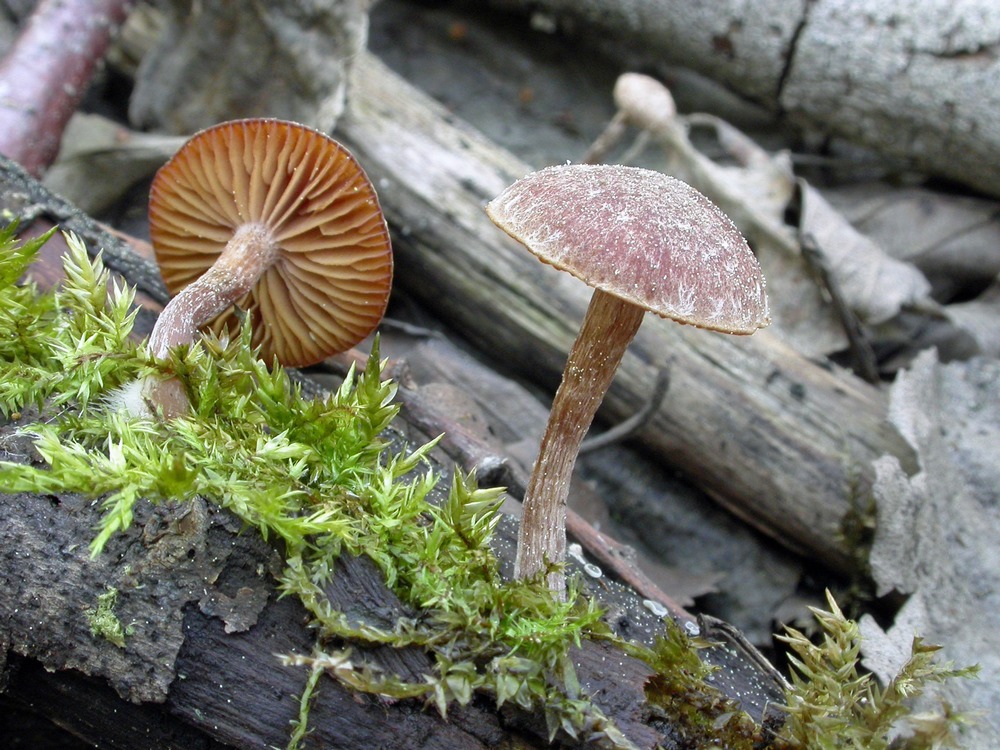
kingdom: Fungi
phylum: Basidiomycota
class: Agaricomycetes
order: Agaricales
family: Tubariaceae
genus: Tubaria
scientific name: Tubaria furfuracea
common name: kliddet fnughat
